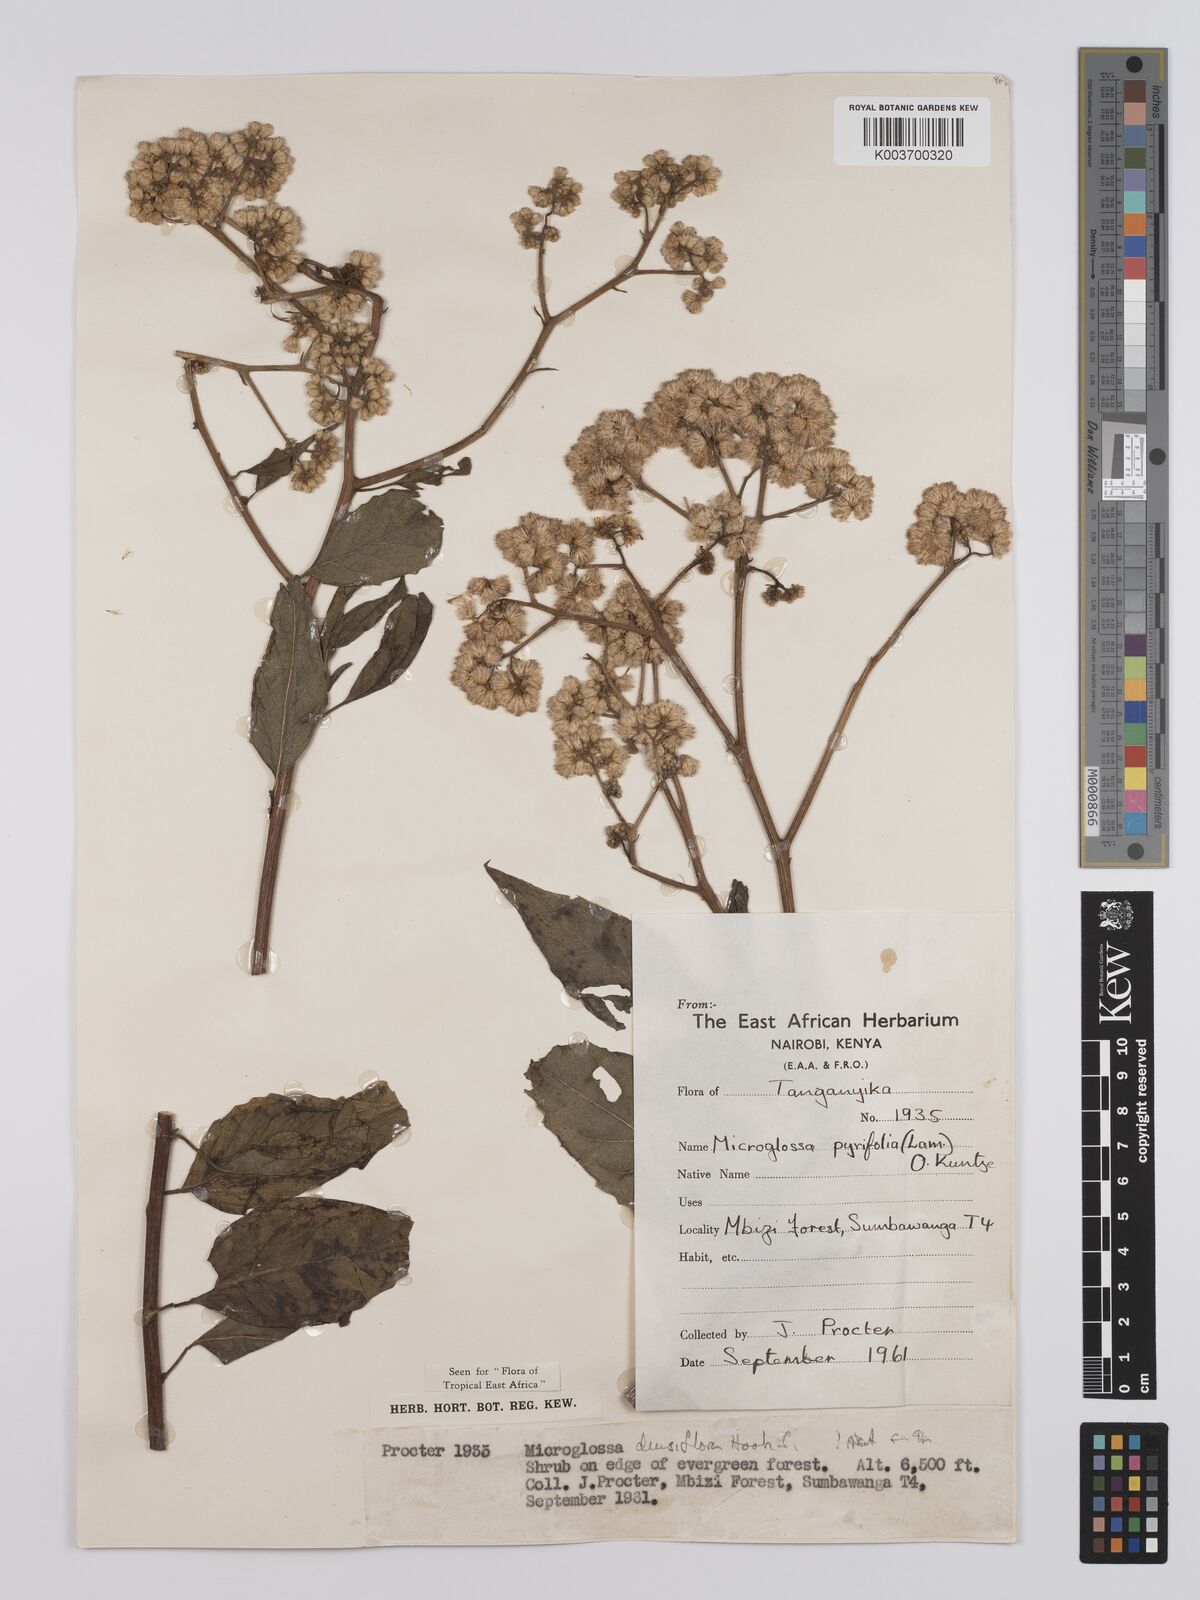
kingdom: Plantae
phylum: Tracheophyta
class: Magnoliopsida
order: Asterales
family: Asteraceae
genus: Microglossa
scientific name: Microglossa densiflora
